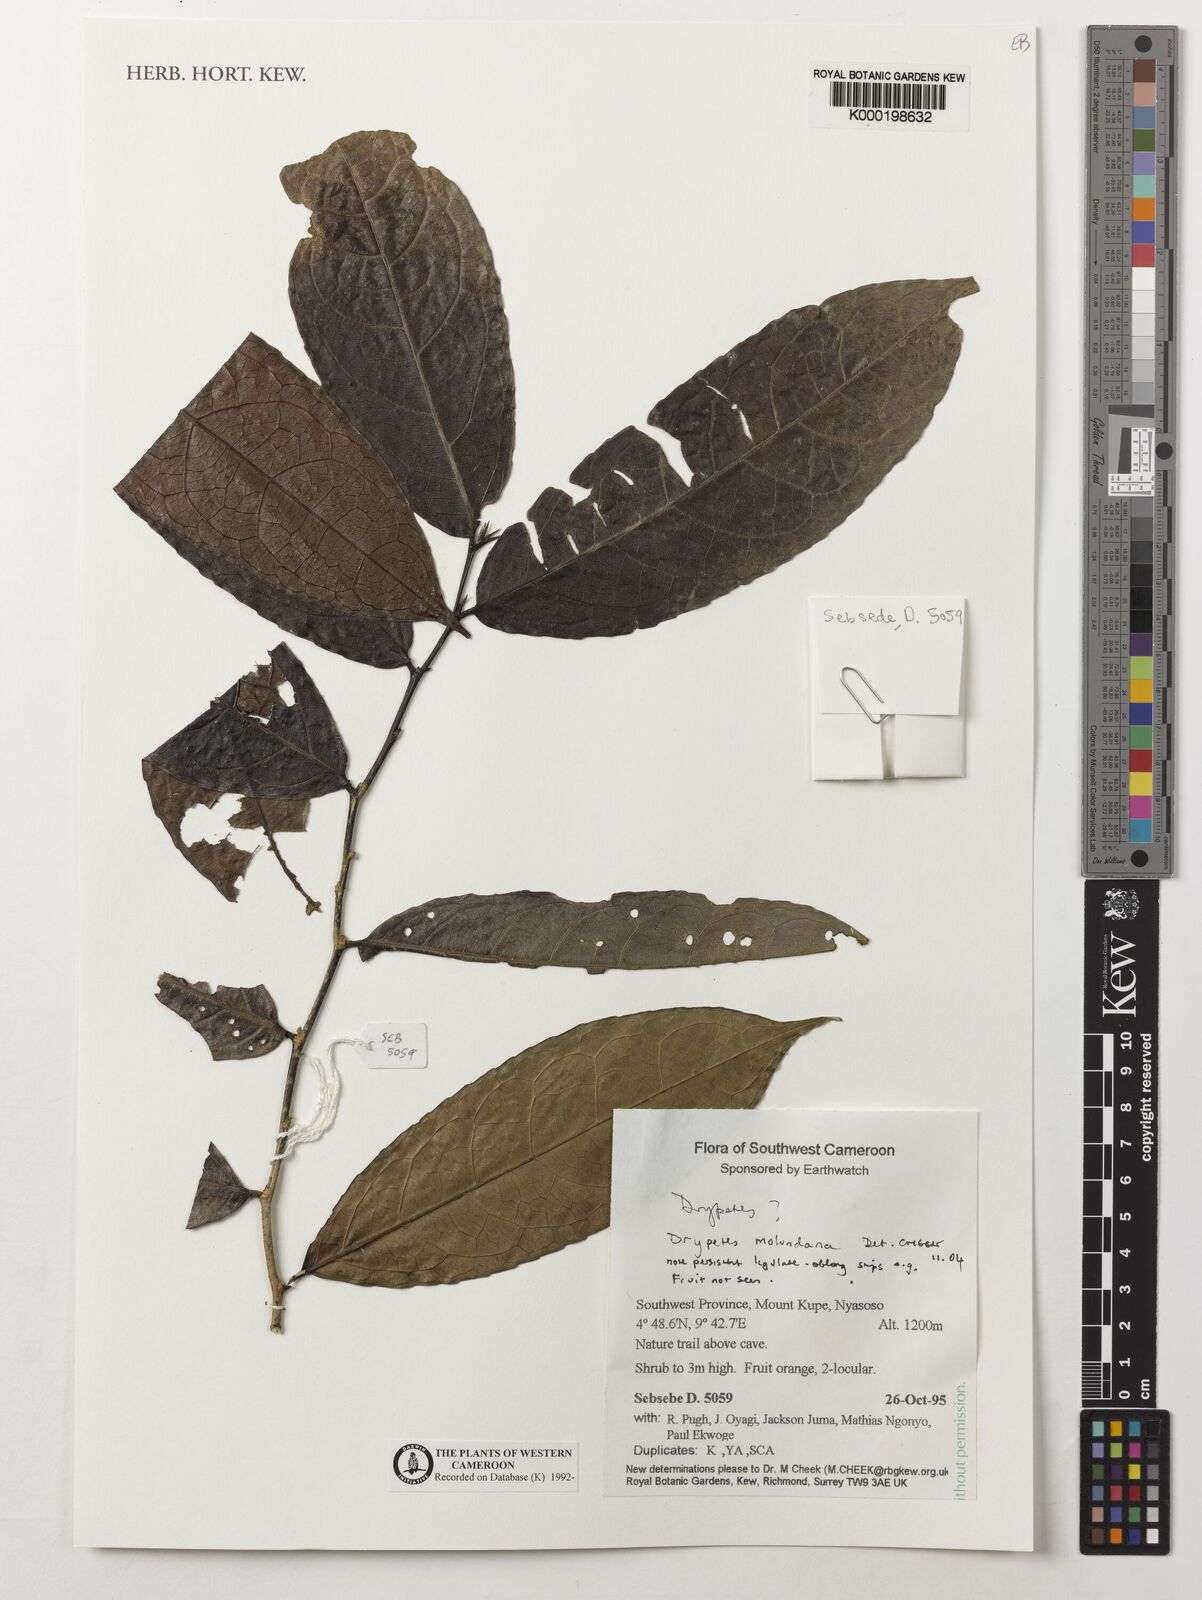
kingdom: Plantae
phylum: Tracheophyta
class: Magnoliopsida
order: Malpighiales
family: Putranjivaceae
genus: Drypetes
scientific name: Drypetes molunduana
